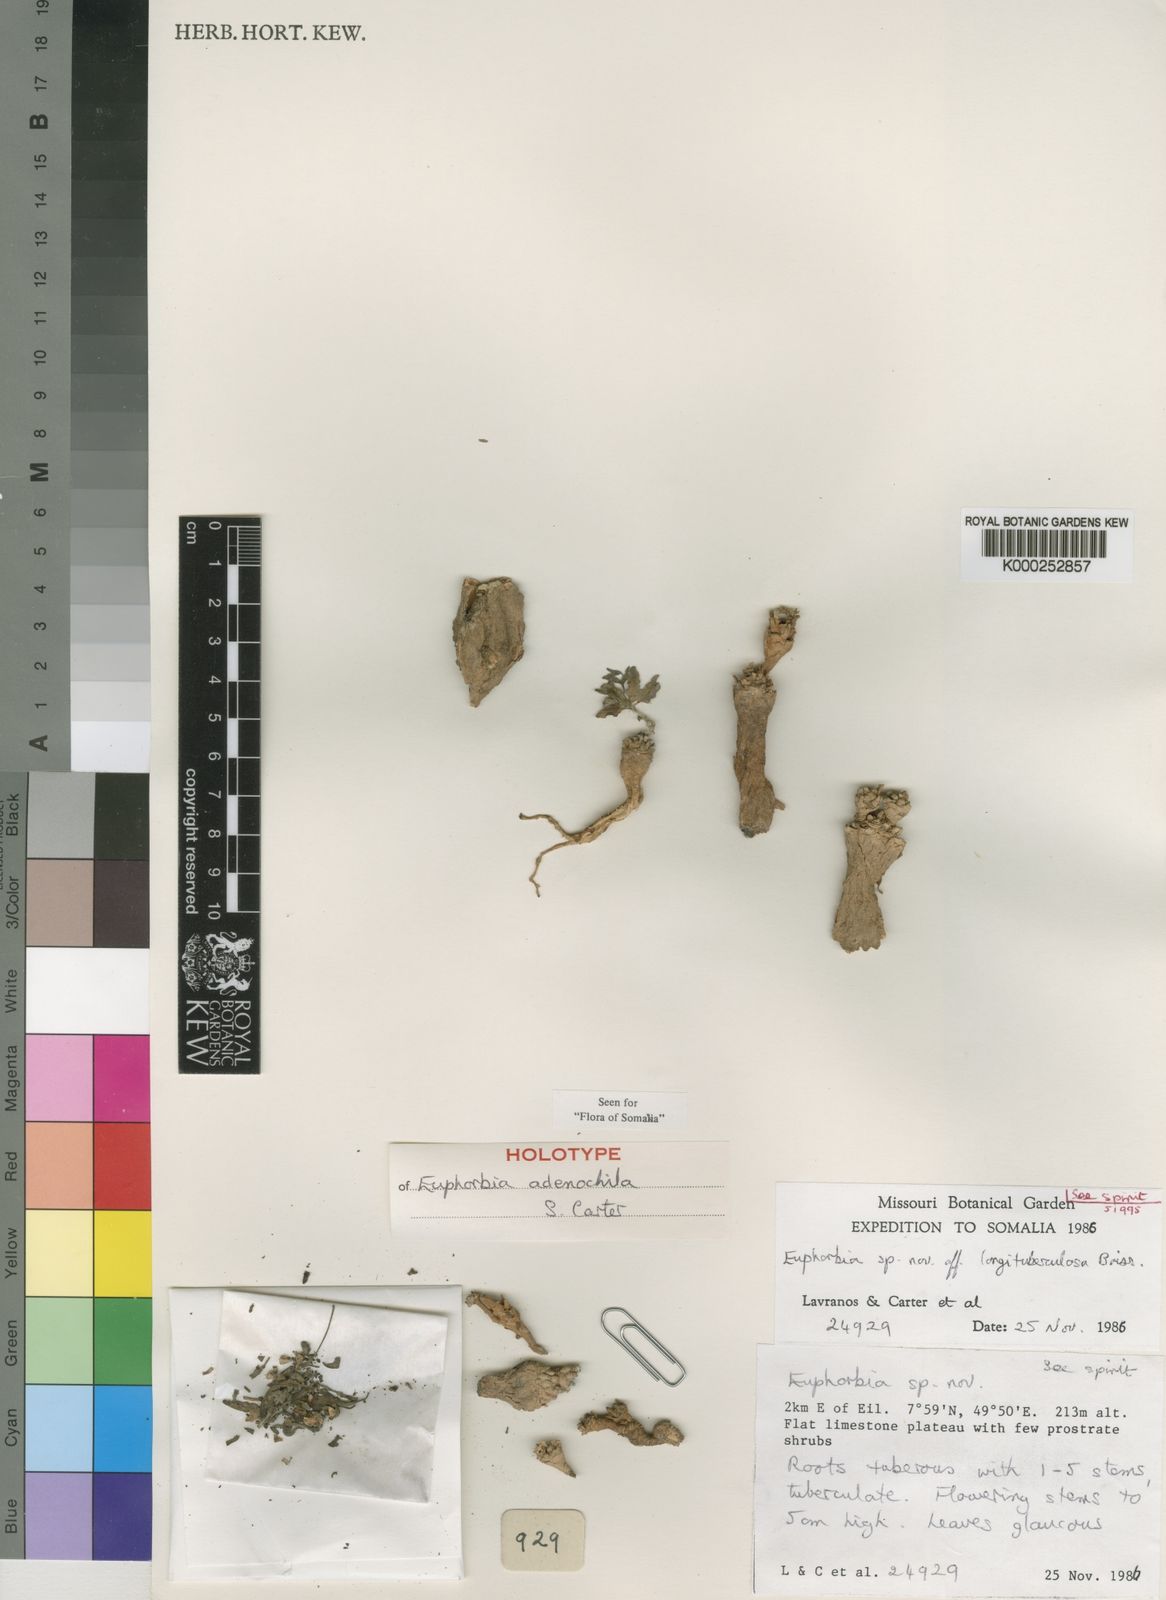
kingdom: Plantae
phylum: Tracheophyta
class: Magnoliopsida
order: Malpighiales
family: Euphorbiaceae
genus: Euphorbia
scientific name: Euphorbia adenochila
